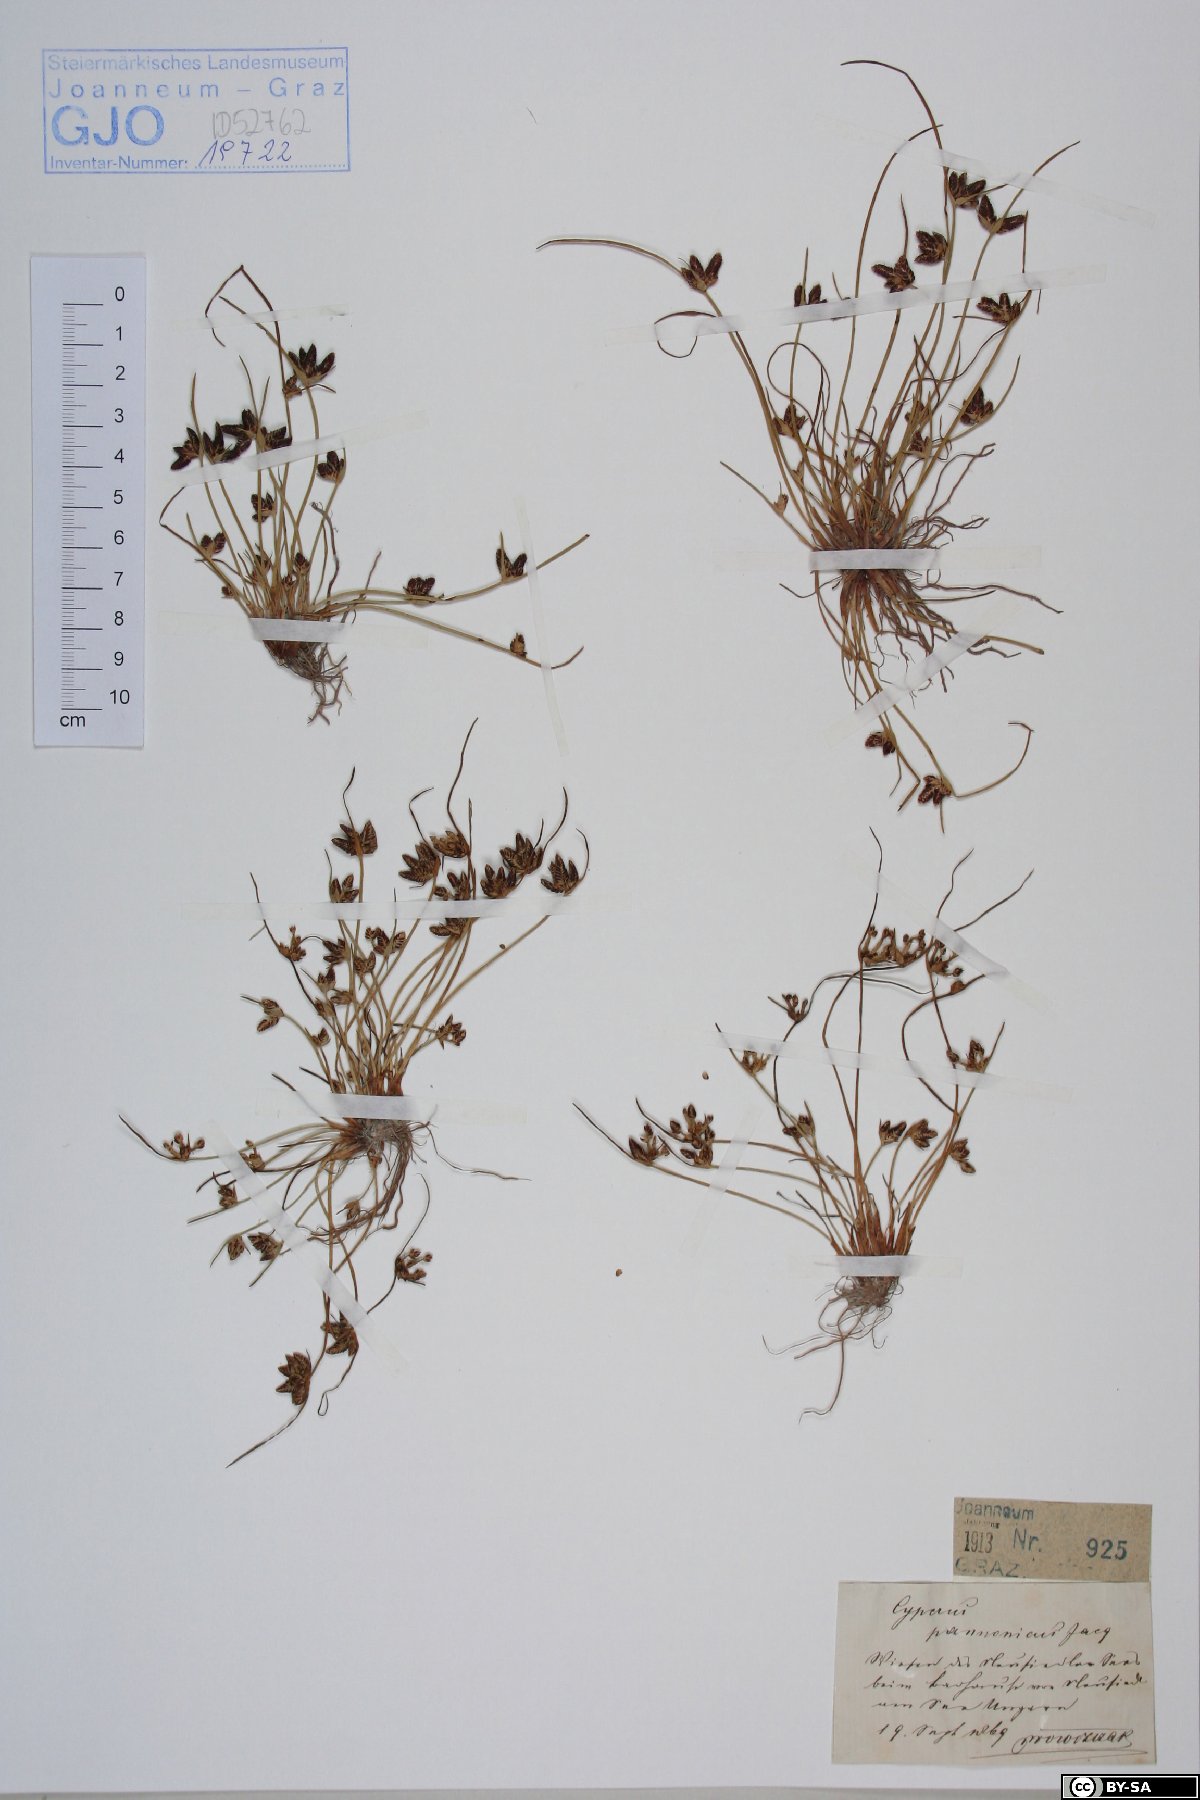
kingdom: Plantae
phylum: Tracheophyta
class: Liliopsida
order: Poales
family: Cyperaceae
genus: Cyperus
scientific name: Cyperus pannonicus
